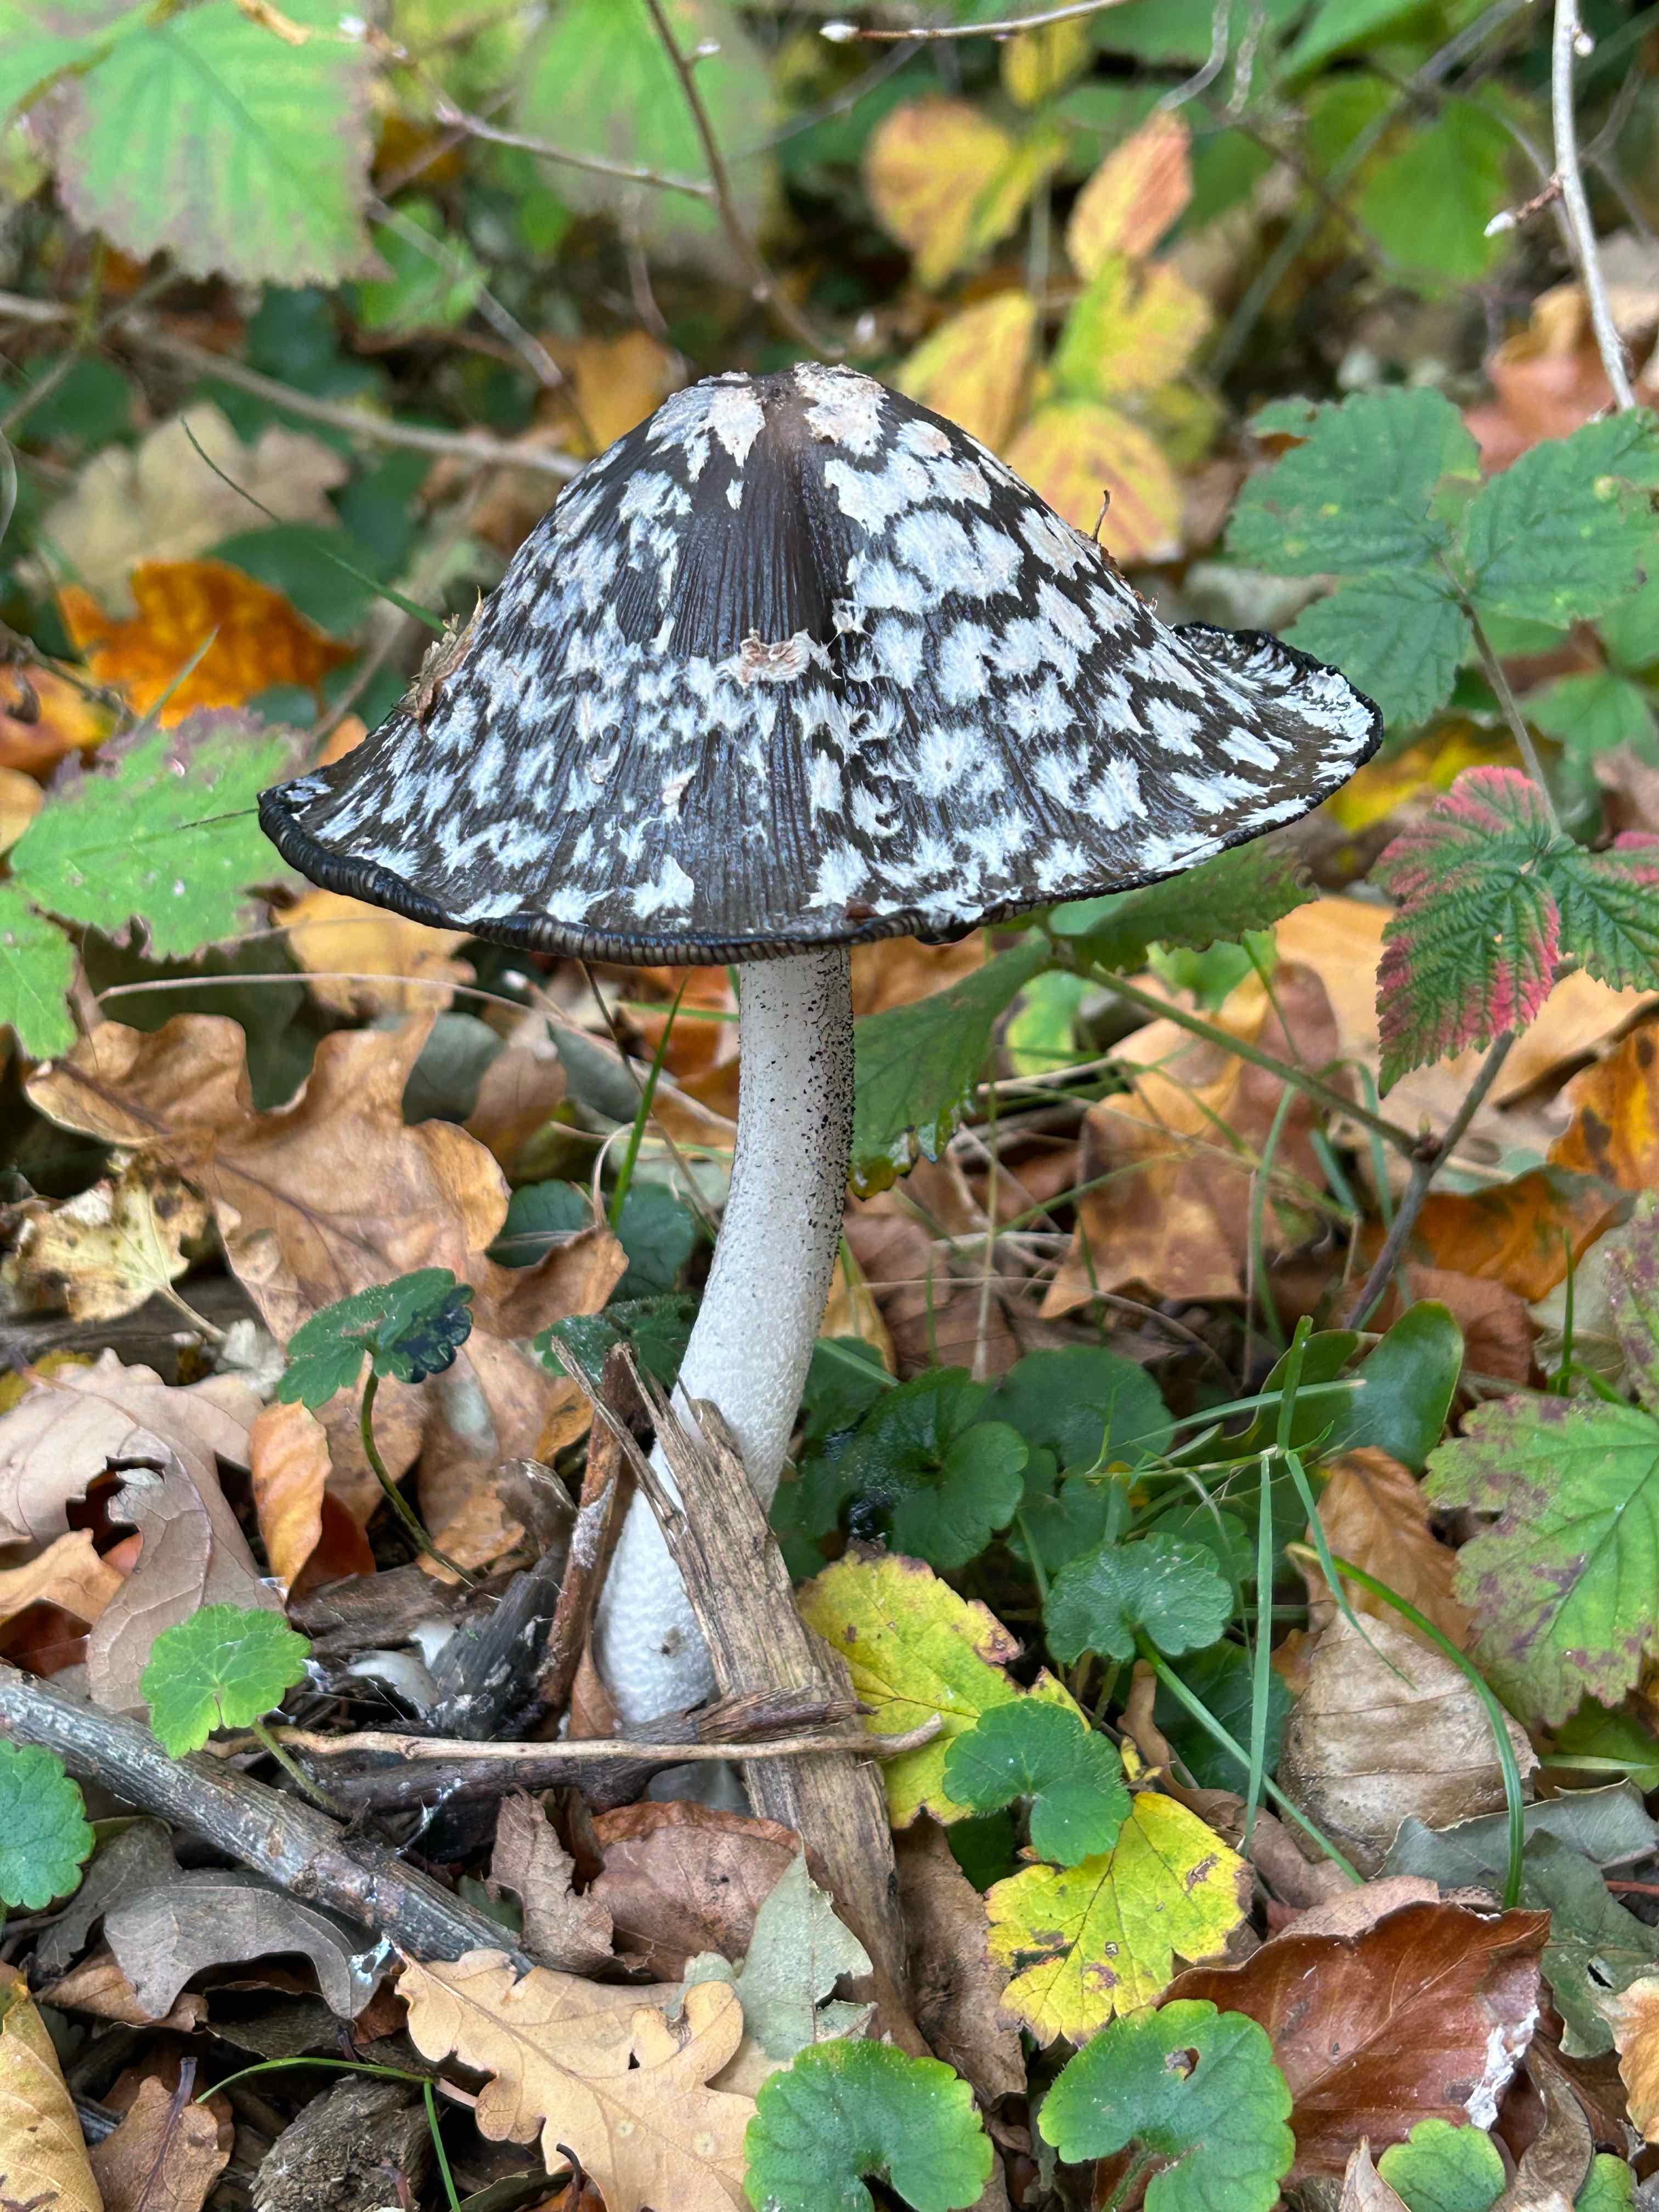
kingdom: Fungi
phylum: Basidiomycota
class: Agaricomycetes
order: Agaricales
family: Psathyrellaceae
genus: Coprinopsis
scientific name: Coprinopsis picacea
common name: skade-blækhat
